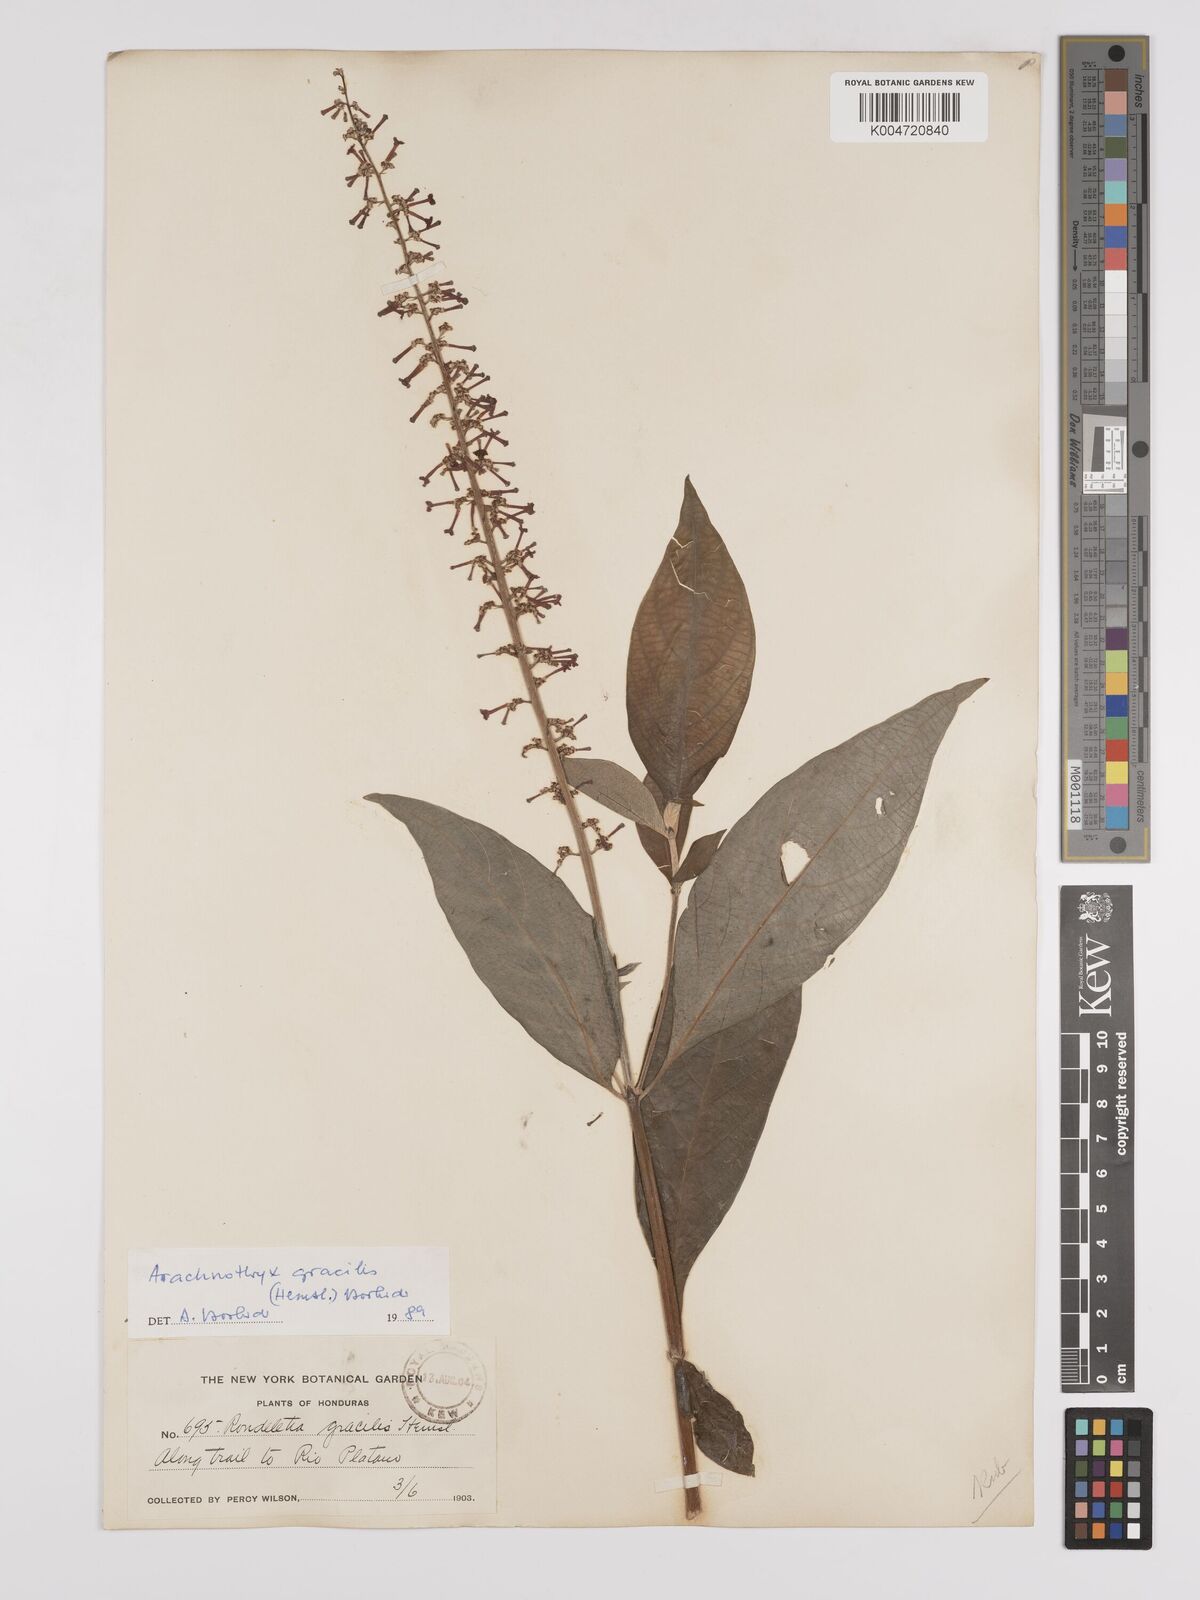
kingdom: Plantae
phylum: Tracheophyta
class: Magnoliopsida
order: Gentianales
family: Rubiaceae
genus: Arachnothryx
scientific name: Arachnothryx gracilis
